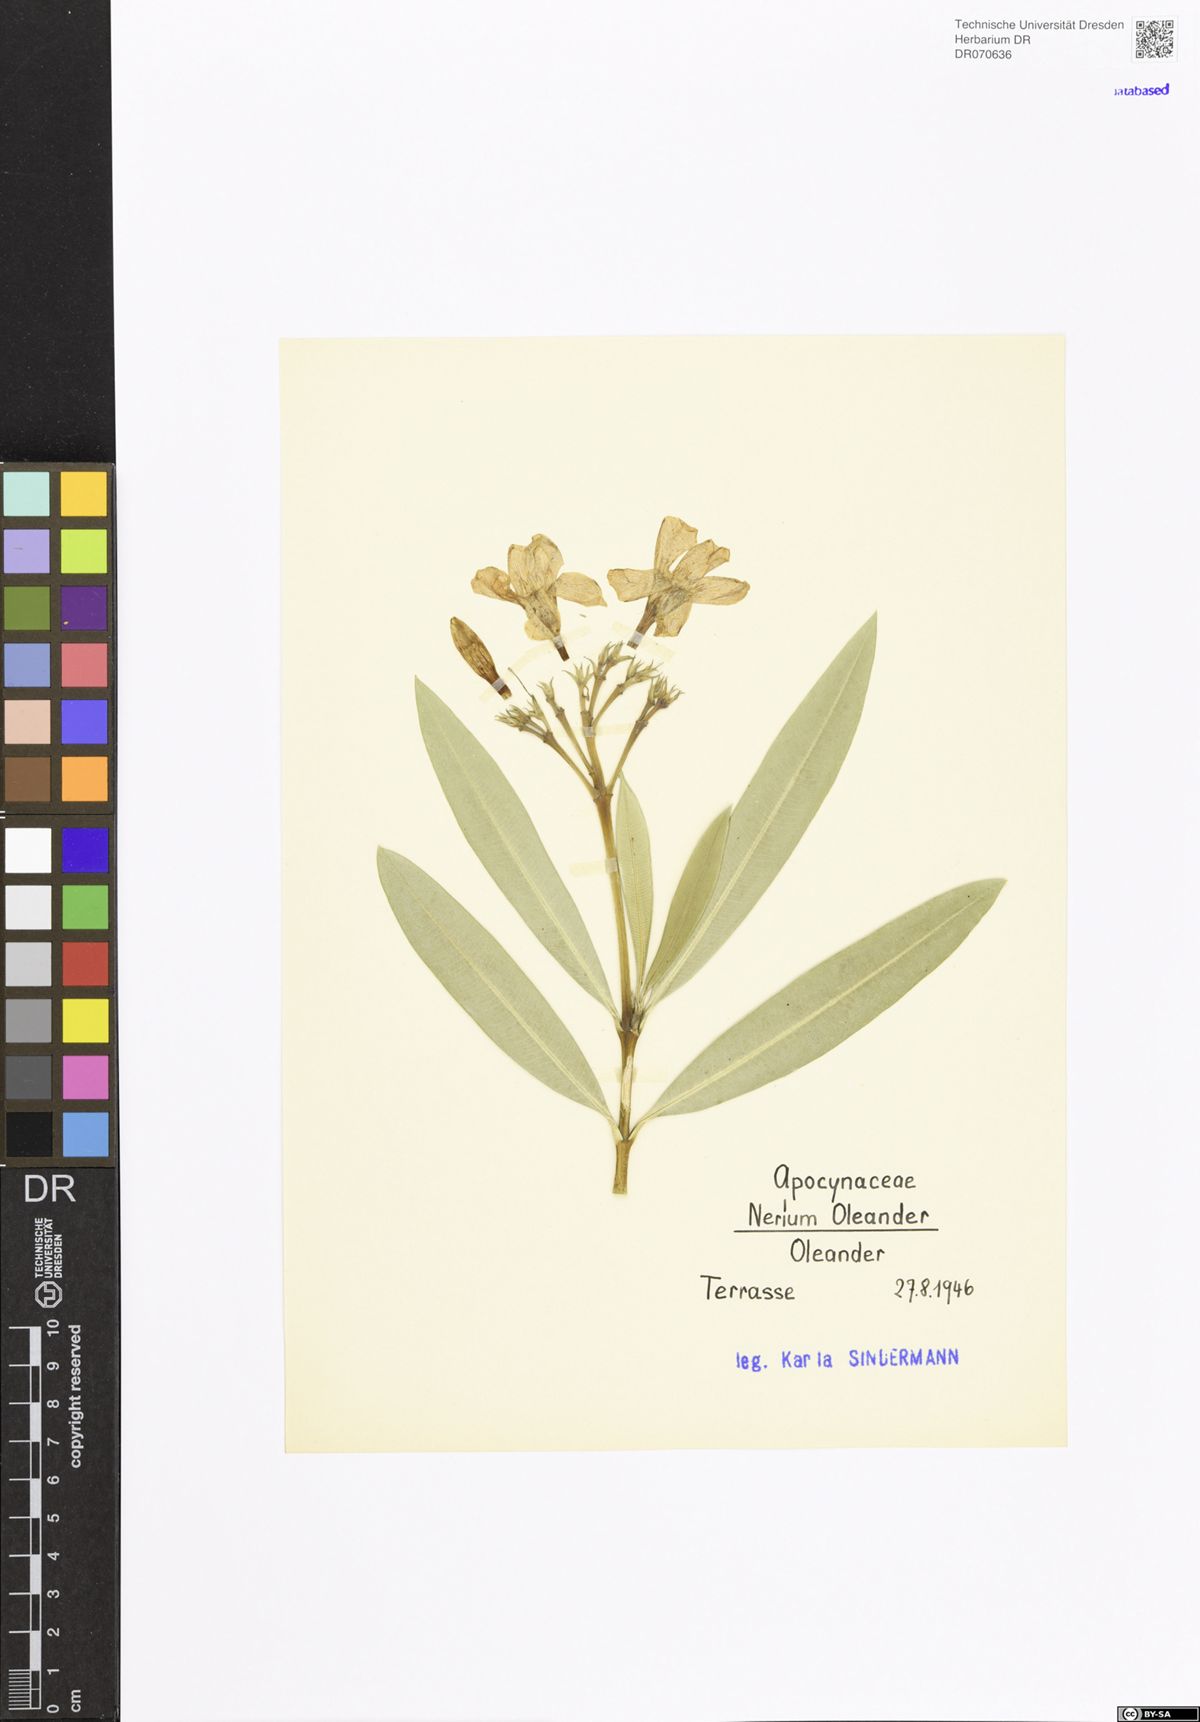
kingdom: Plantae
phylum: Tracheophyta
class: Magnoliopsida
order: Gentianales
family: Apocynaceae
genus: Nerium
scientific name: Nerium oleander
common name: Oleander
